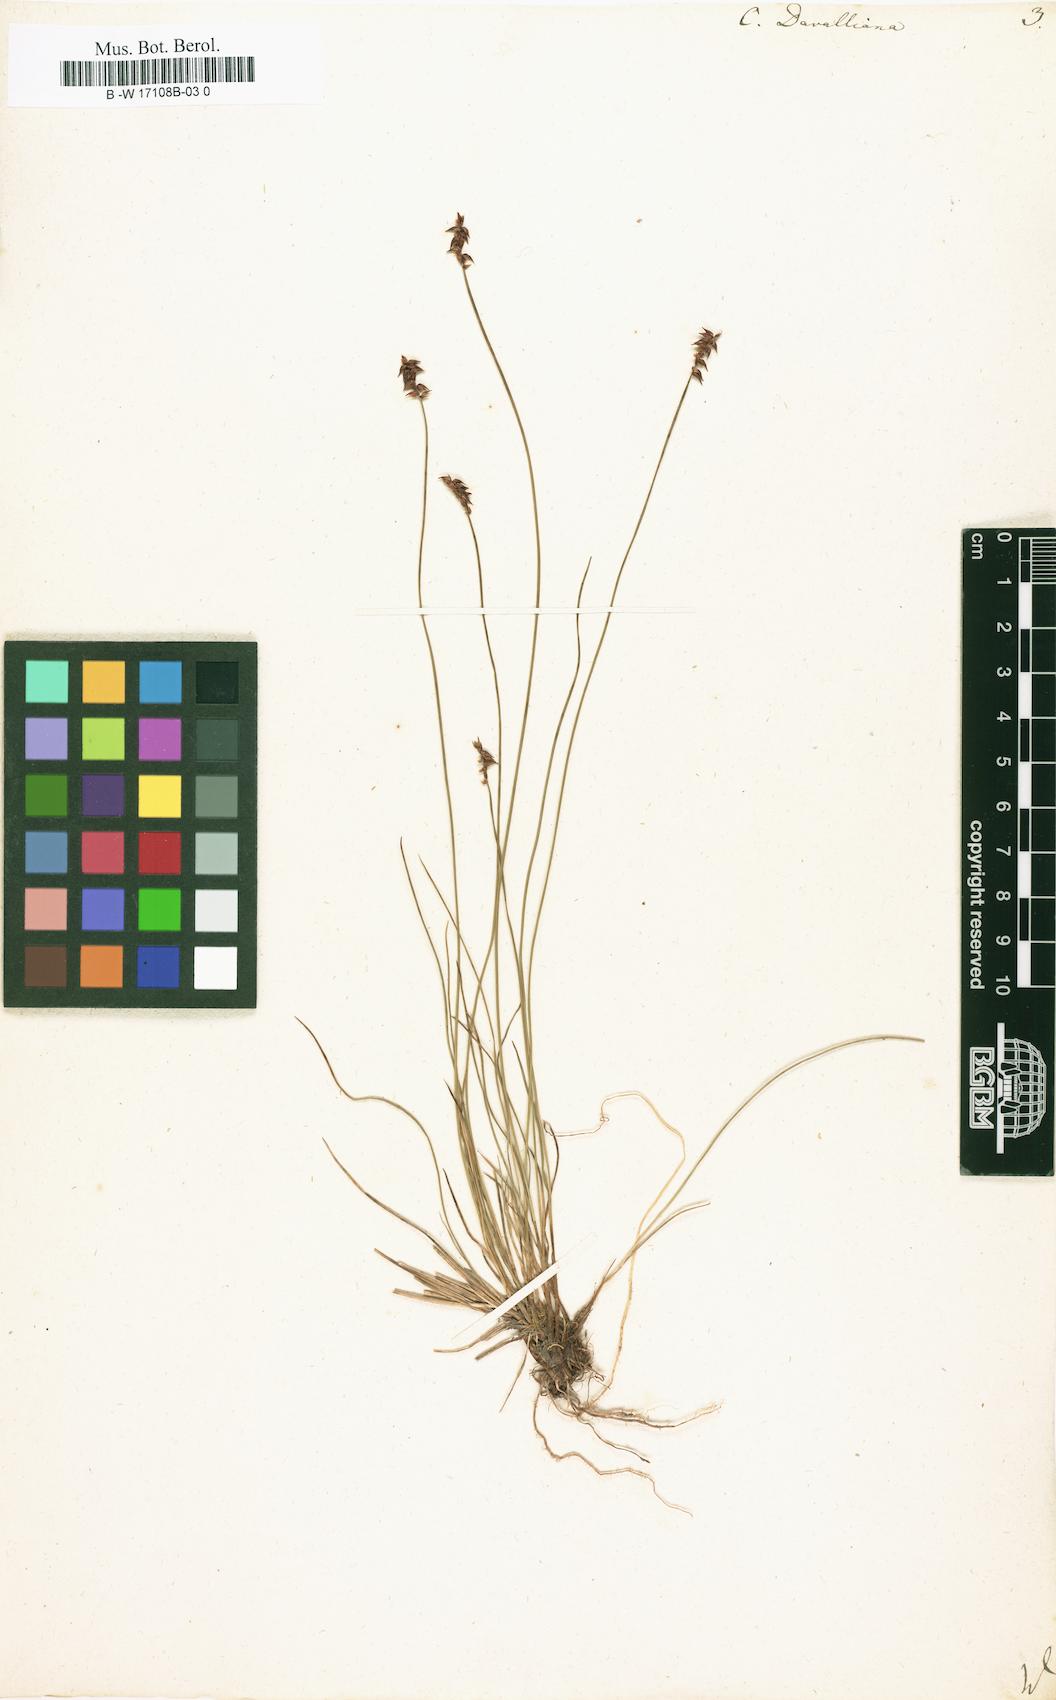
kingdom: Plantae
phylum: Tracheophyta
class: Liliopsida
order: Poales
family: Cyperaceae
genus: Carex
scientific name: Carex davalliana
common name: Davall's sedge
